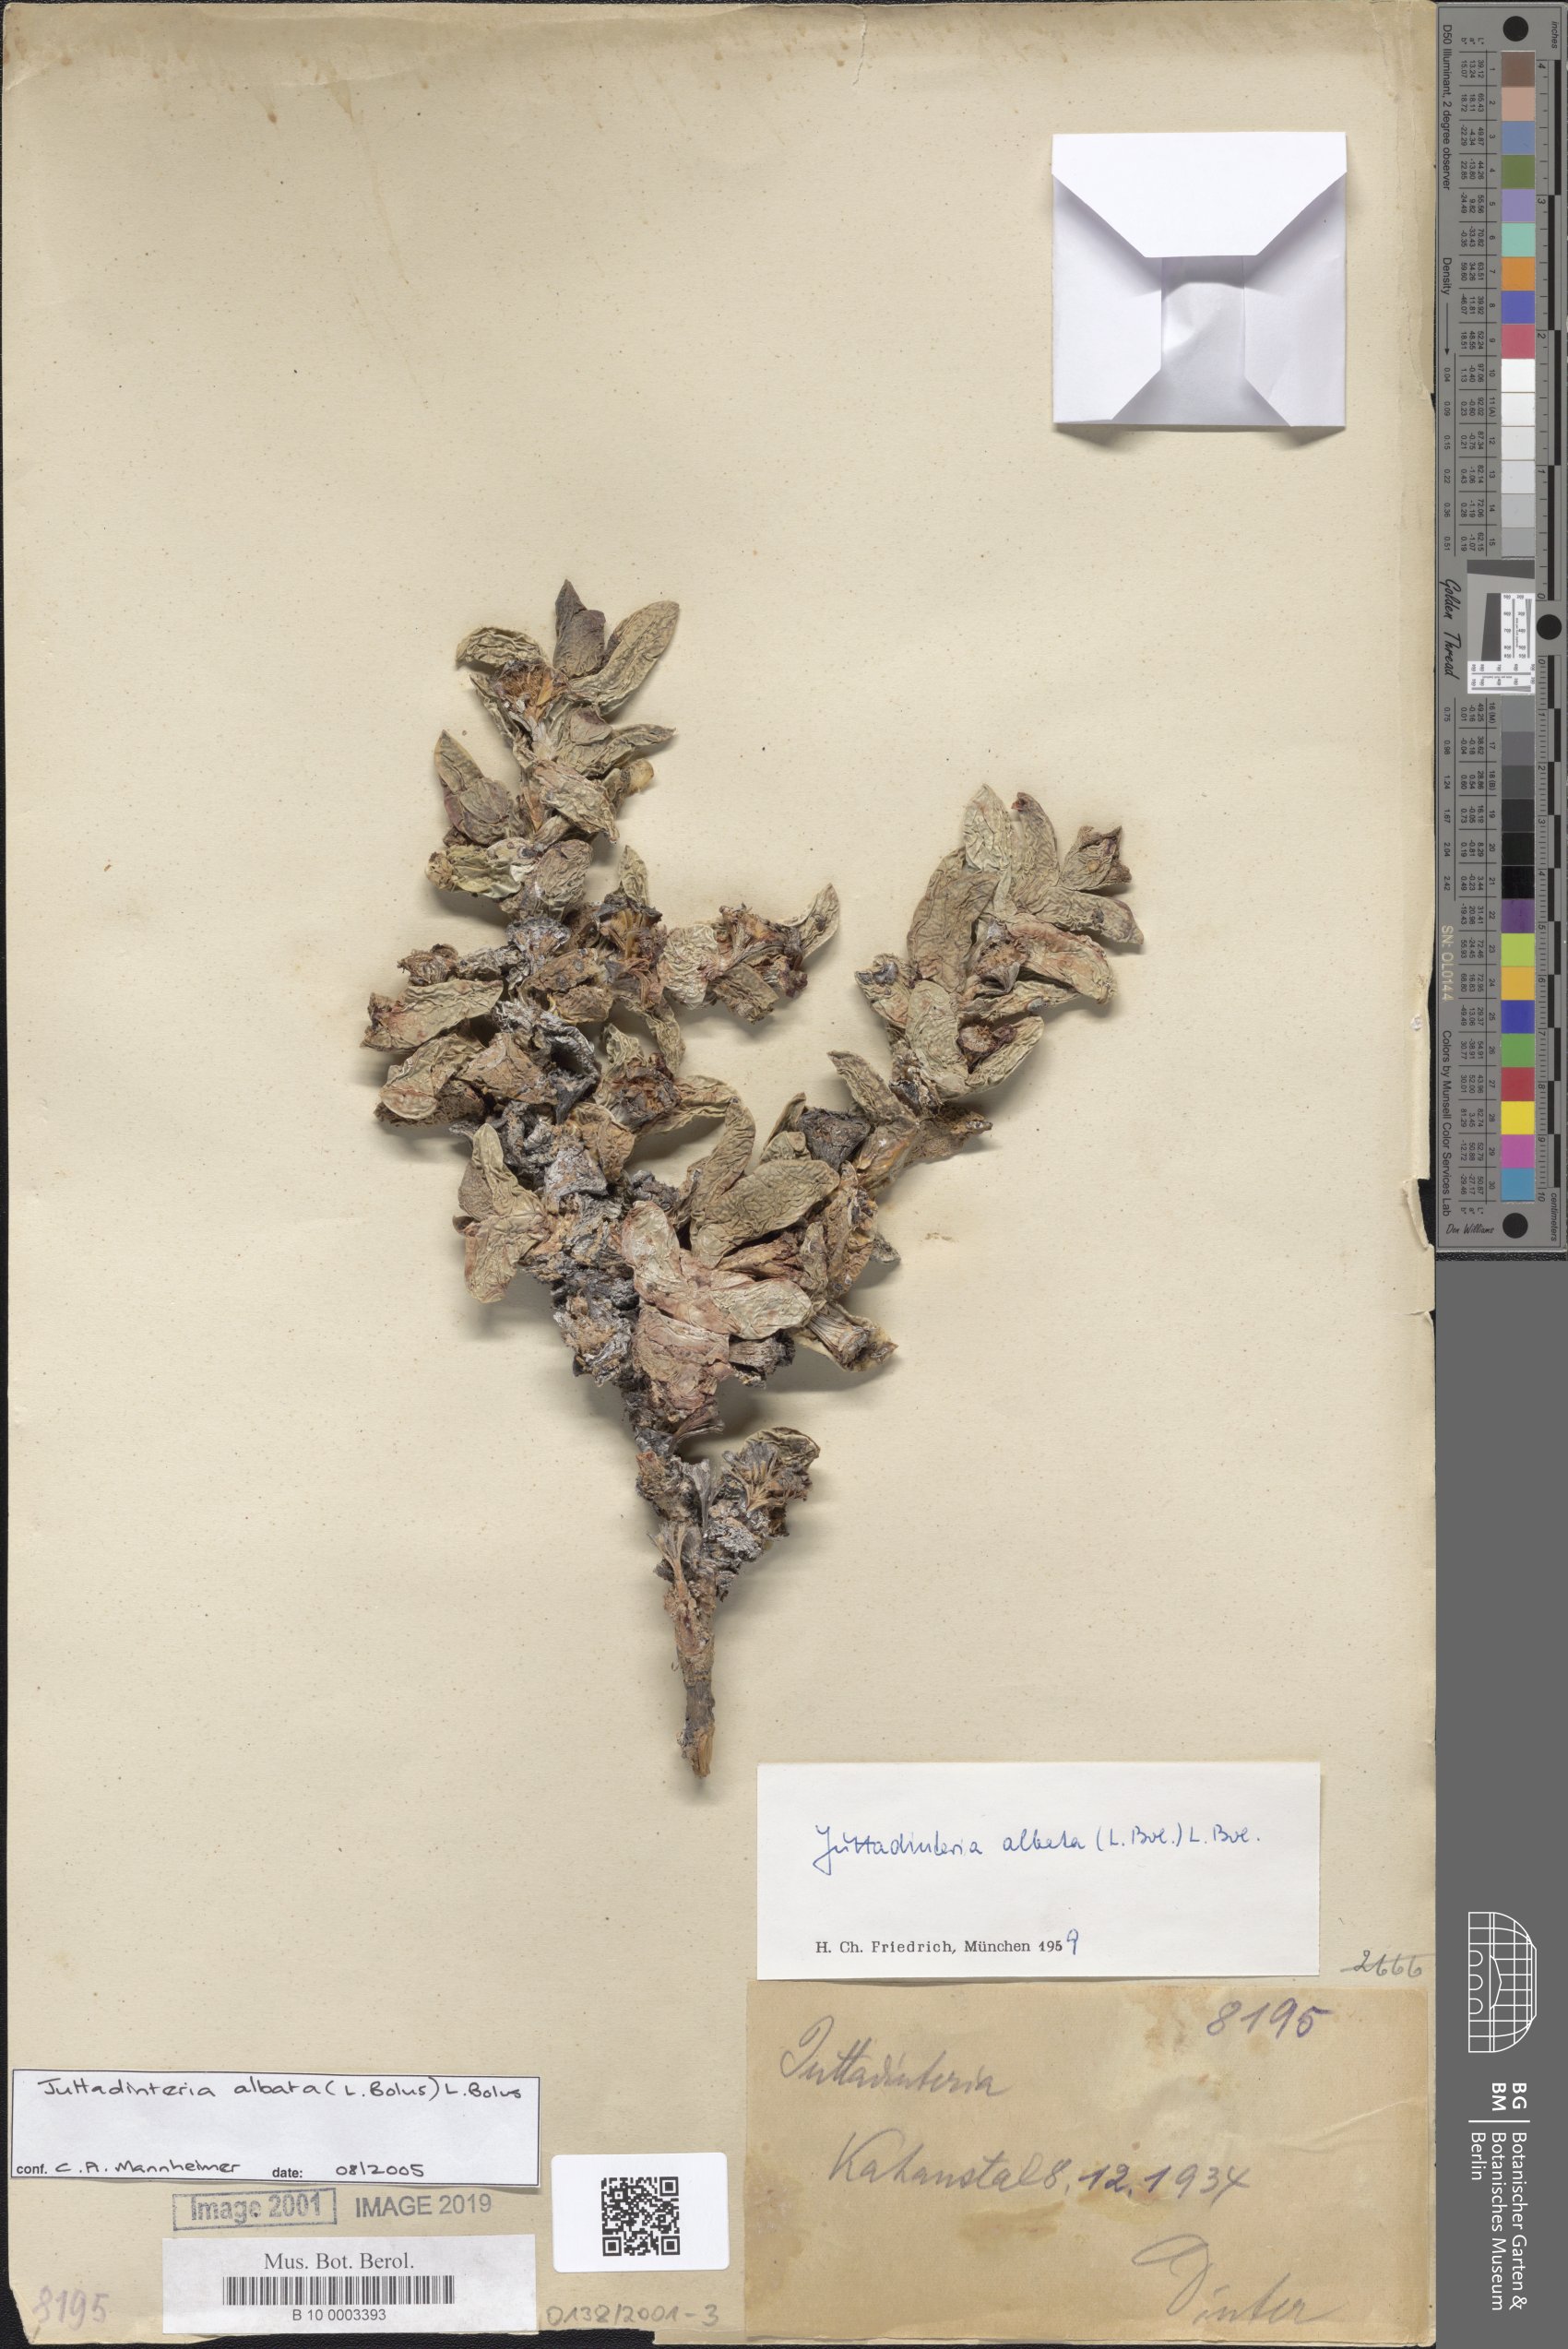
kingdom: Plantae
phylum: Tracheophyta
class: Magnoliopsida
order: Caryophyllales
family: Aizoaceae
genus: Juttadinteria
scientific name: Juttadinteria albata
